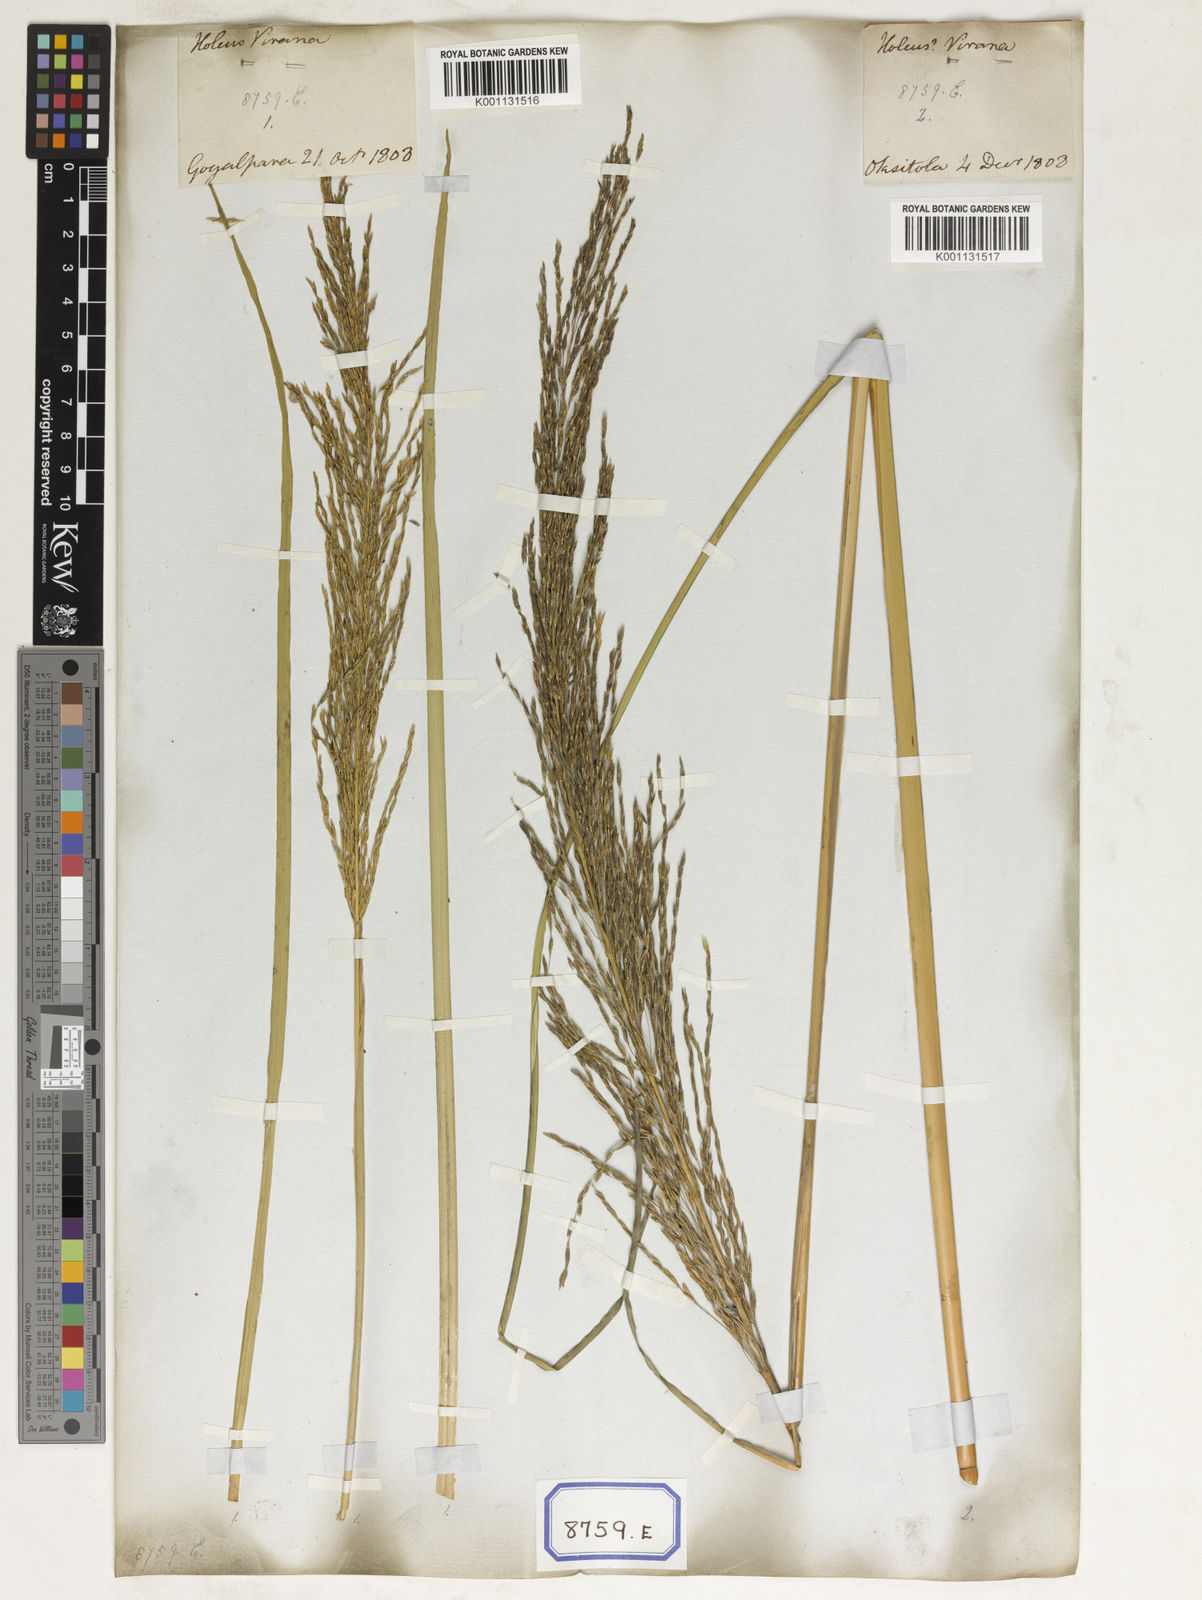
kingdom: Plantae
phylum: Tracheophyta
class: Liliopsida
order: Poales
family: Poaceae
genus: Chrysopogon
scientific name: Chrysopogon zizanioides
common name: False beardgrass
